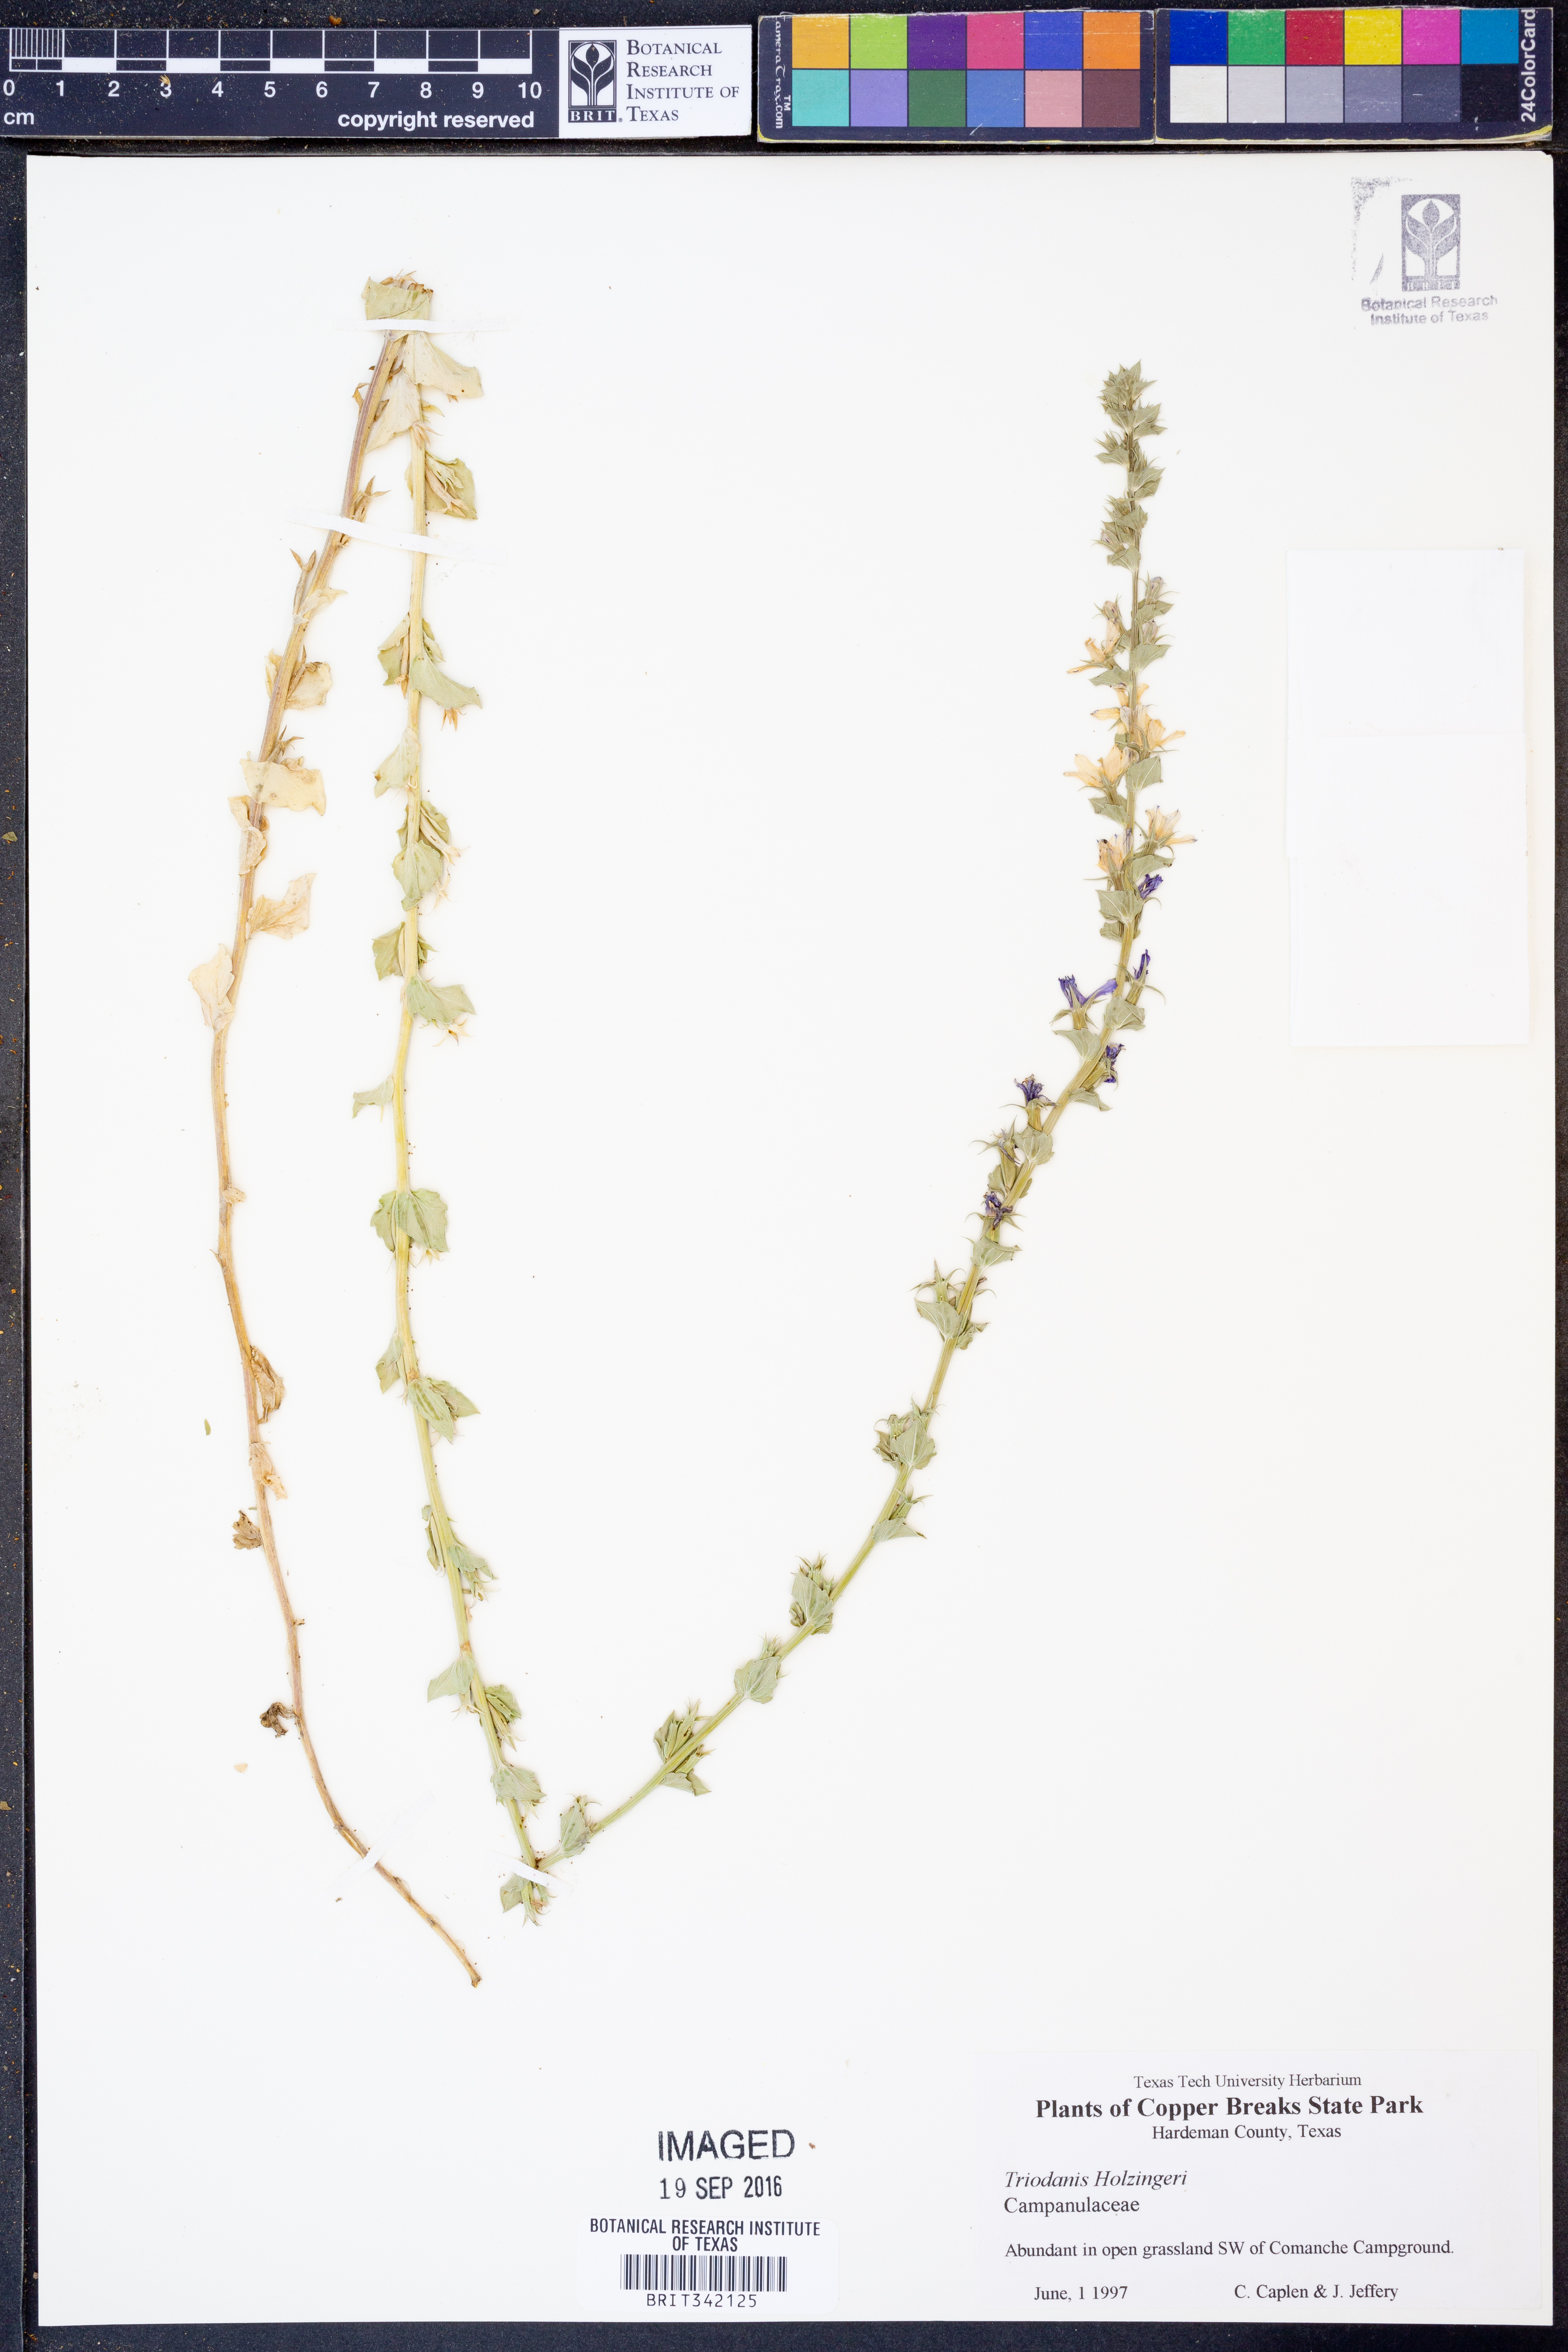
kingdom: Plantae
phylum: Tracheophyta
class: Magnoliopsida
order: Asterales
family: Campanulaceae
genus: Triodanis
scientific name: Triodanis holzingeri
